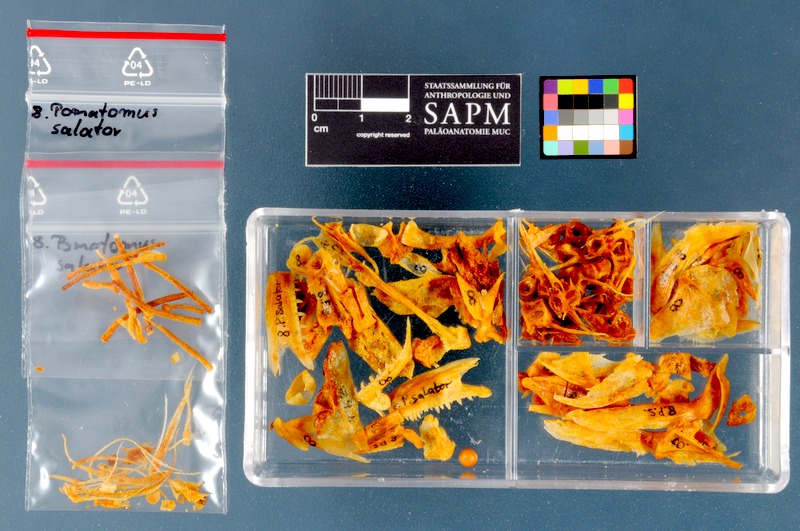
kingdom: Animalia
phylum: Chordata
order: Perciformes
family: Pomatomidae
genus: Pomatomus
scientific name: Pomatomus saltatrix
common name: Bluefish
